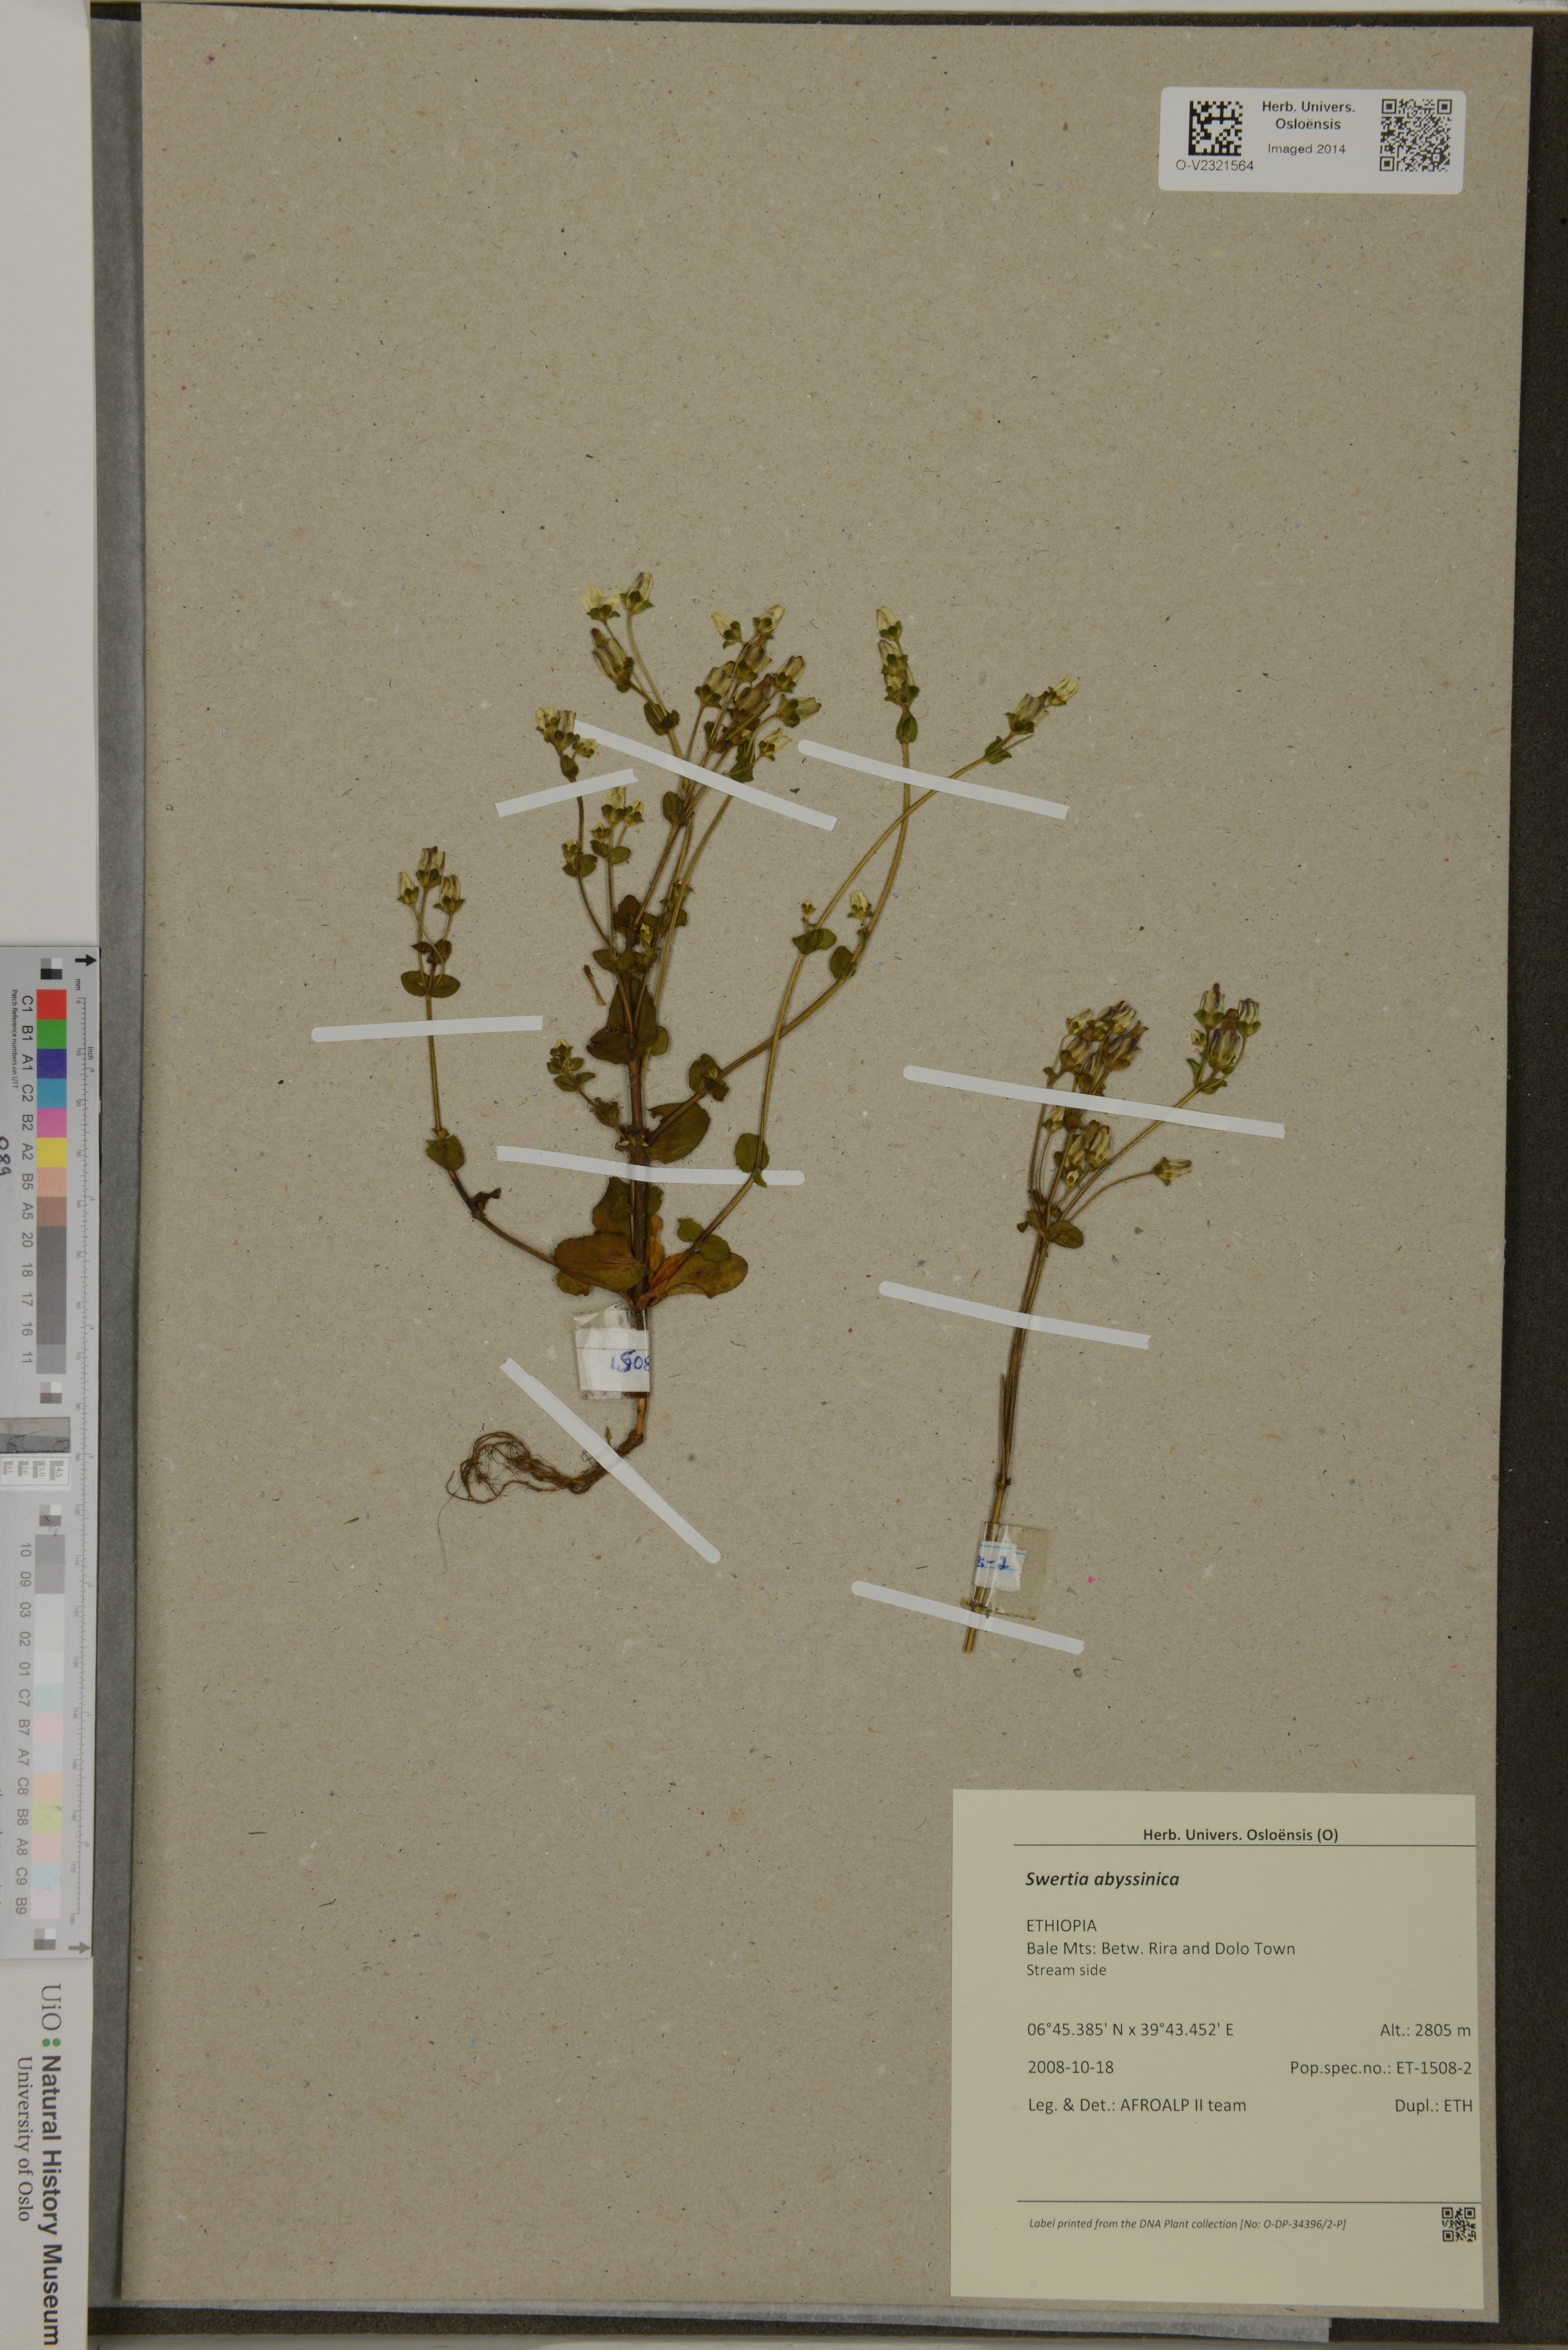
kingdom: Plantae
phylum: Tracheophyta
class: Magnoliopsida
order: Gentianales
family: Gentianaceae
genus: Swertia
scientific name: Swertia abyssinica
